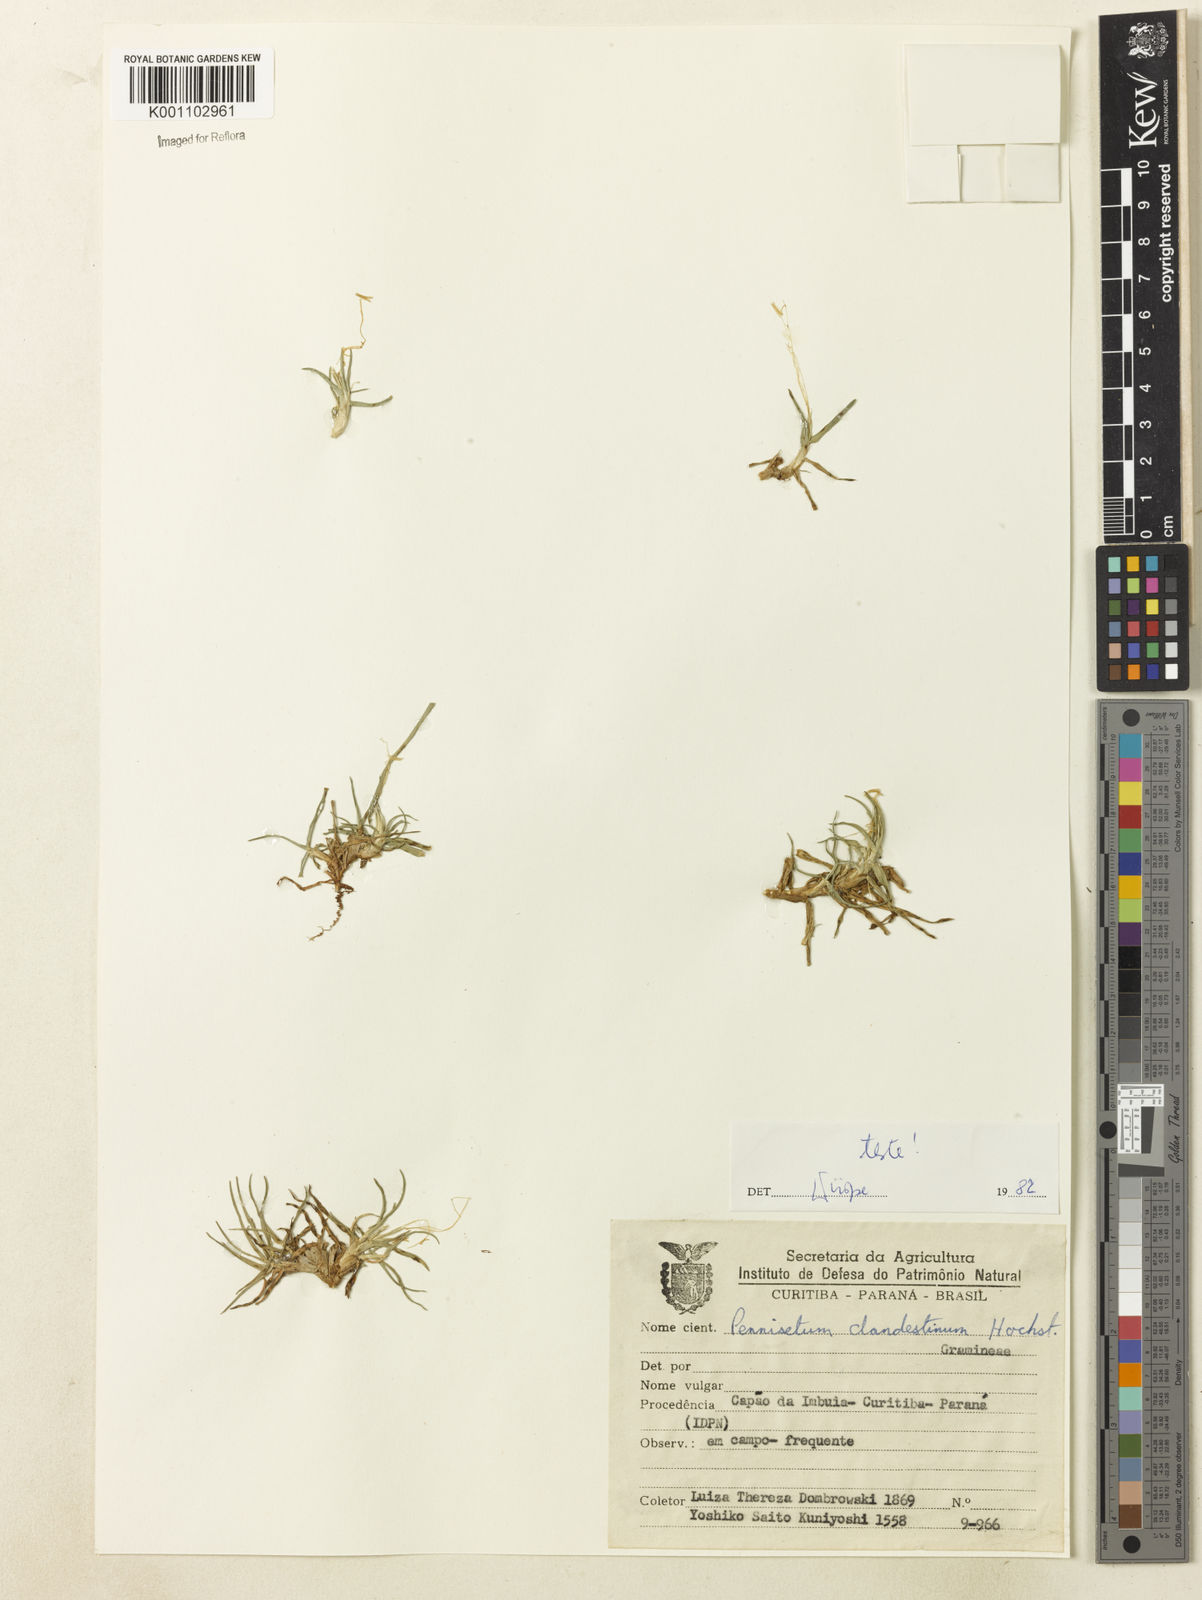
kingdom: Plantae
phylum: Tracheophyta
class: Liliopsida
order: Poales
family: Poaceae
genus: Cenchrus
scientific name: Cenchrus clandestinus
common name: Kikuyugrass
